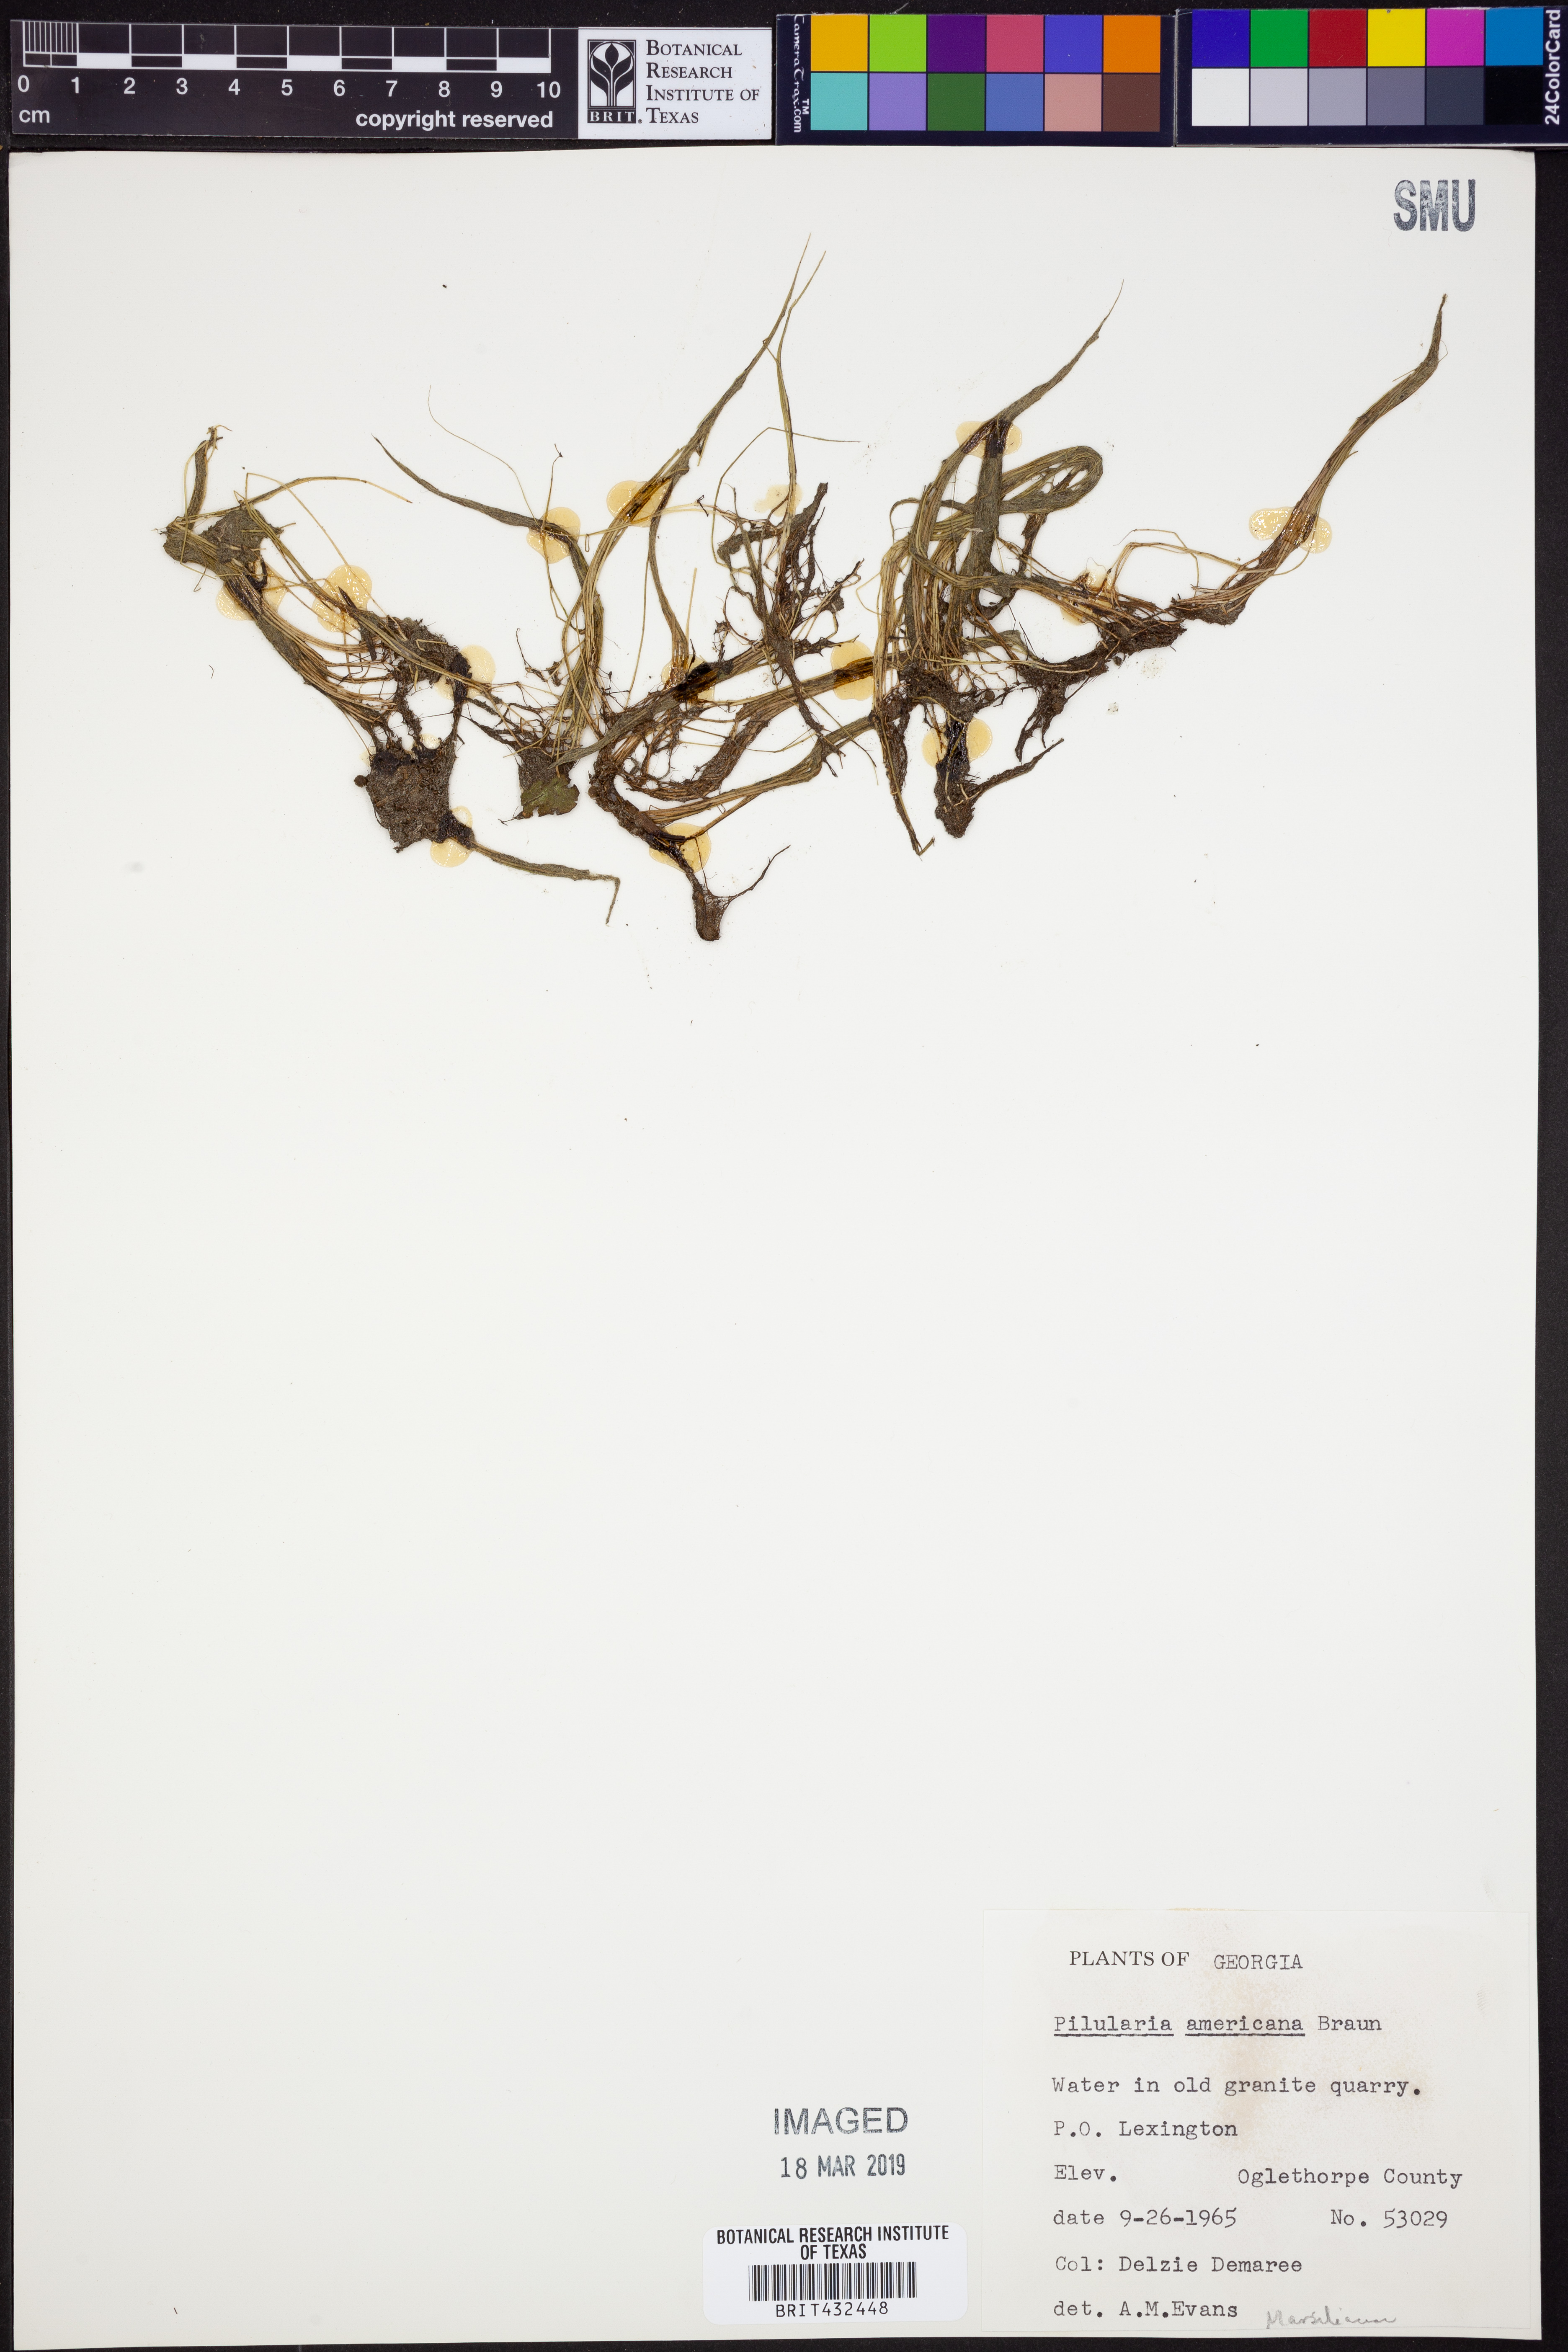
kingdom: Plantae
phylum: Tracheophyta
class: Polypodiopsida
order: Salviniales
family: Marsileaceae
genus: Pilularia
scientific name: Pilularia americana
